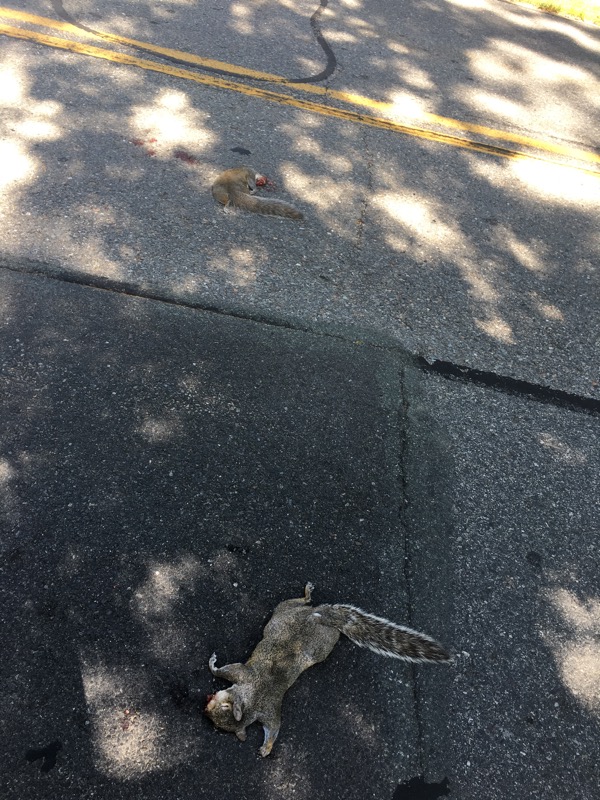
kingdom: Animalia
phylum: Chordata
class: Mammalia
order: Rodentia
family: Sciuridae
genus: Sciurus
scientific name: Sciurus carolinensis
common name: Eastern gray squirrel
